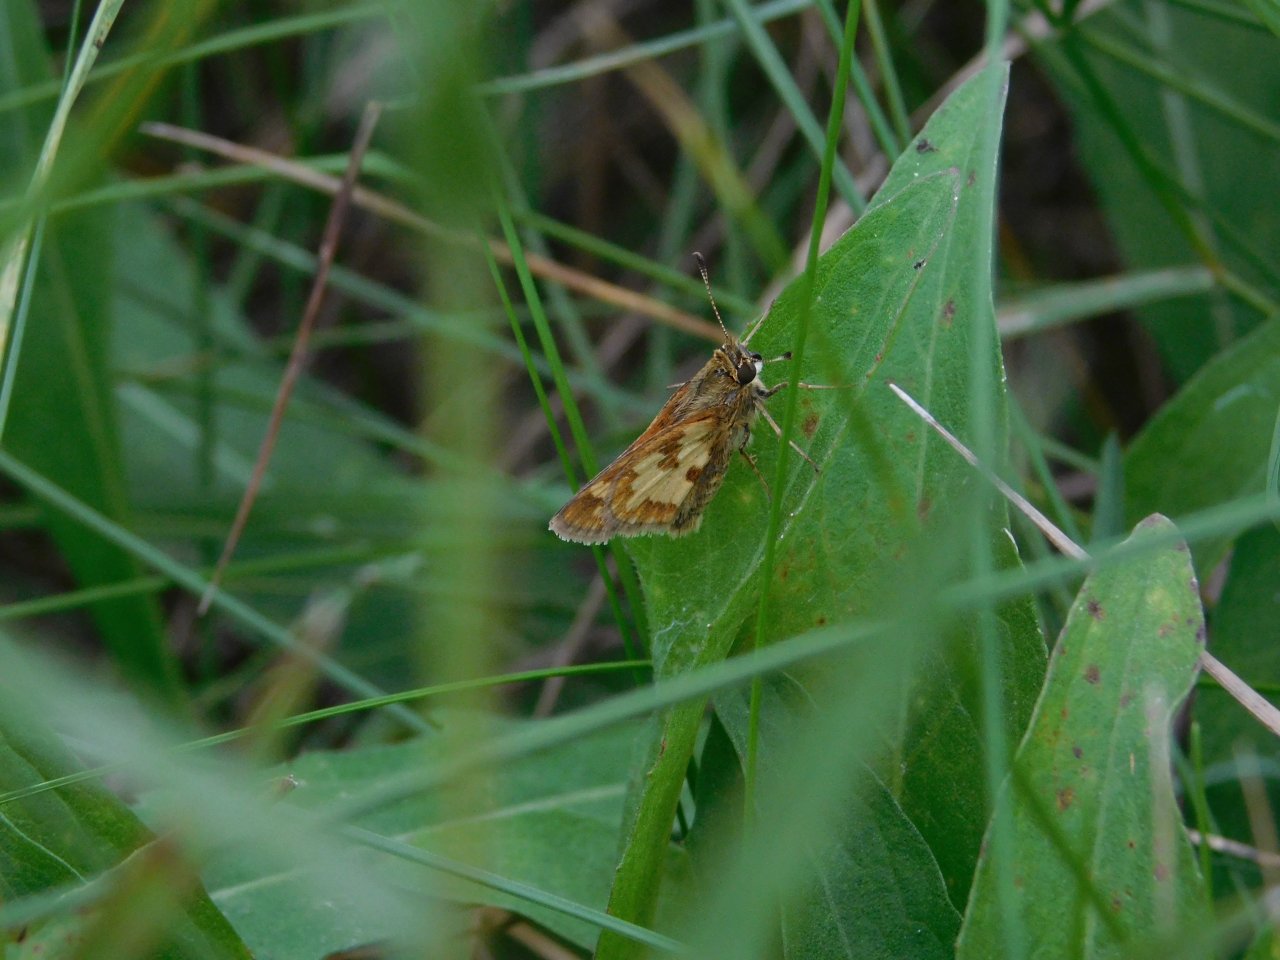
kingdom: Animalia
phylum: Arthropoda
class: Insecta
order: Lepidoptera
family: Hesperiidae
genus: Polites
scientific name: Polites coras
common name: Peck's Skipper
